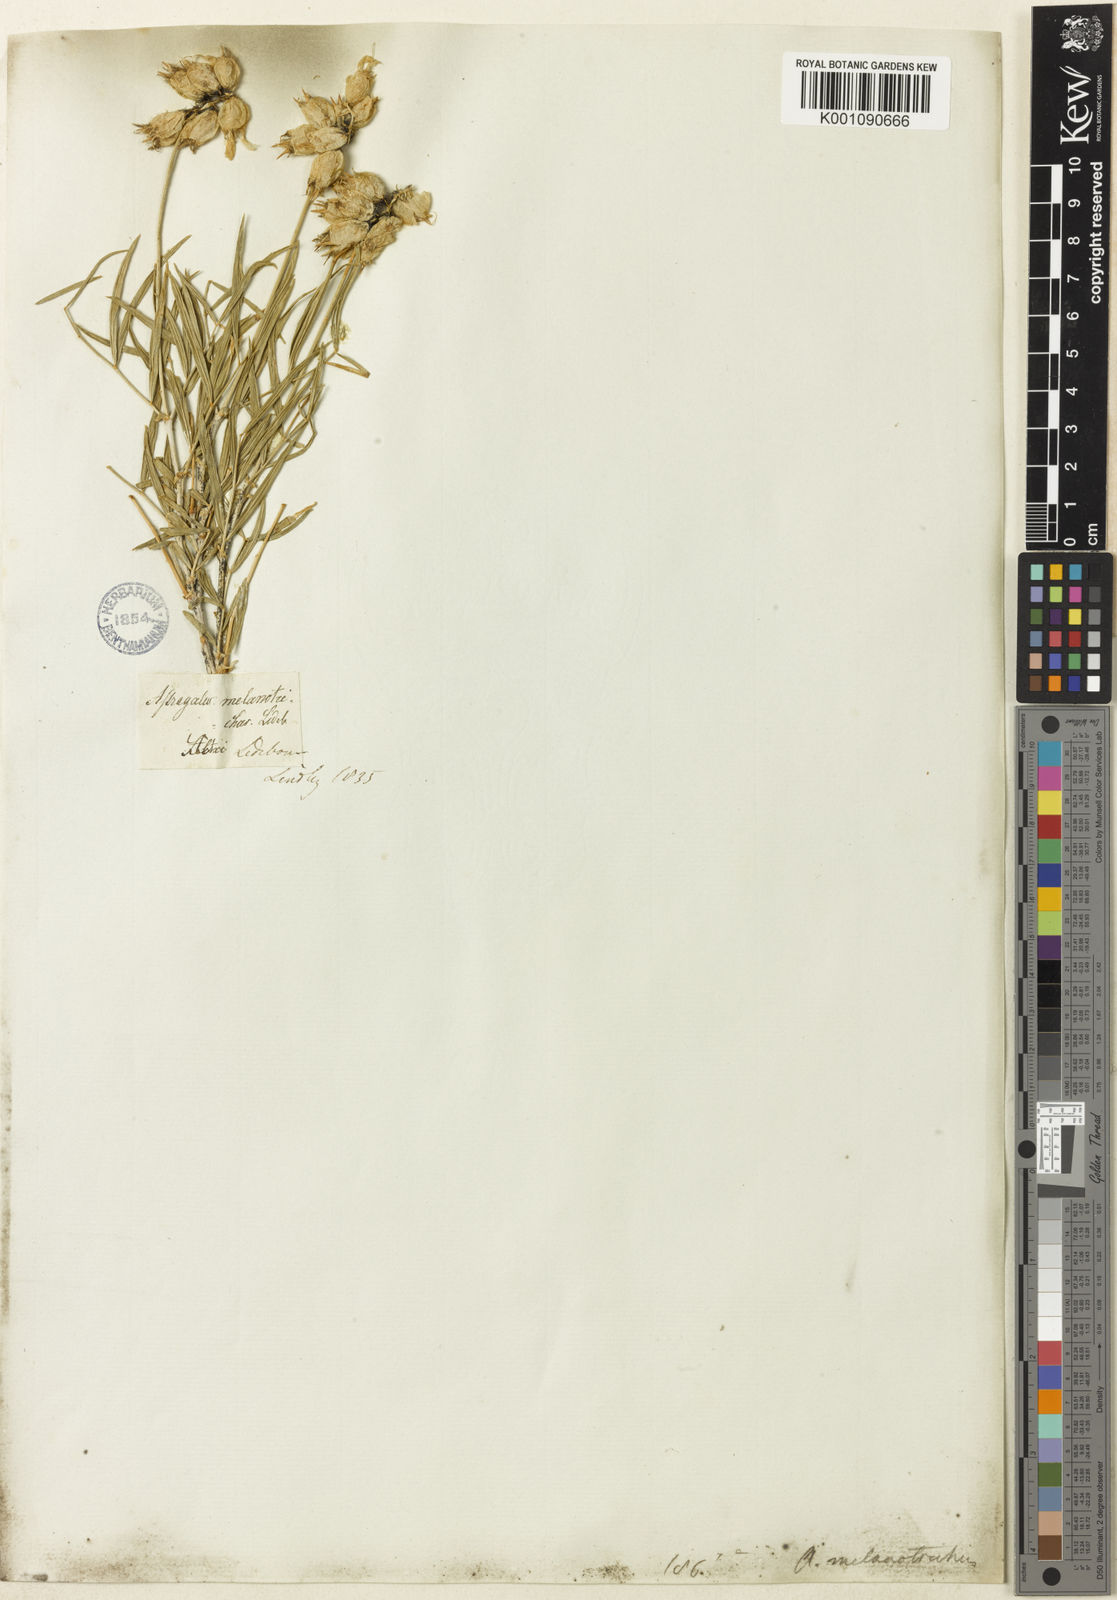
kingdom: Plantae
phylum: Tracheophyta
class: Magnoliopsida
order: Fabales
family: Fabaceae
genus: Astragalus
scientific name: Astragalus
